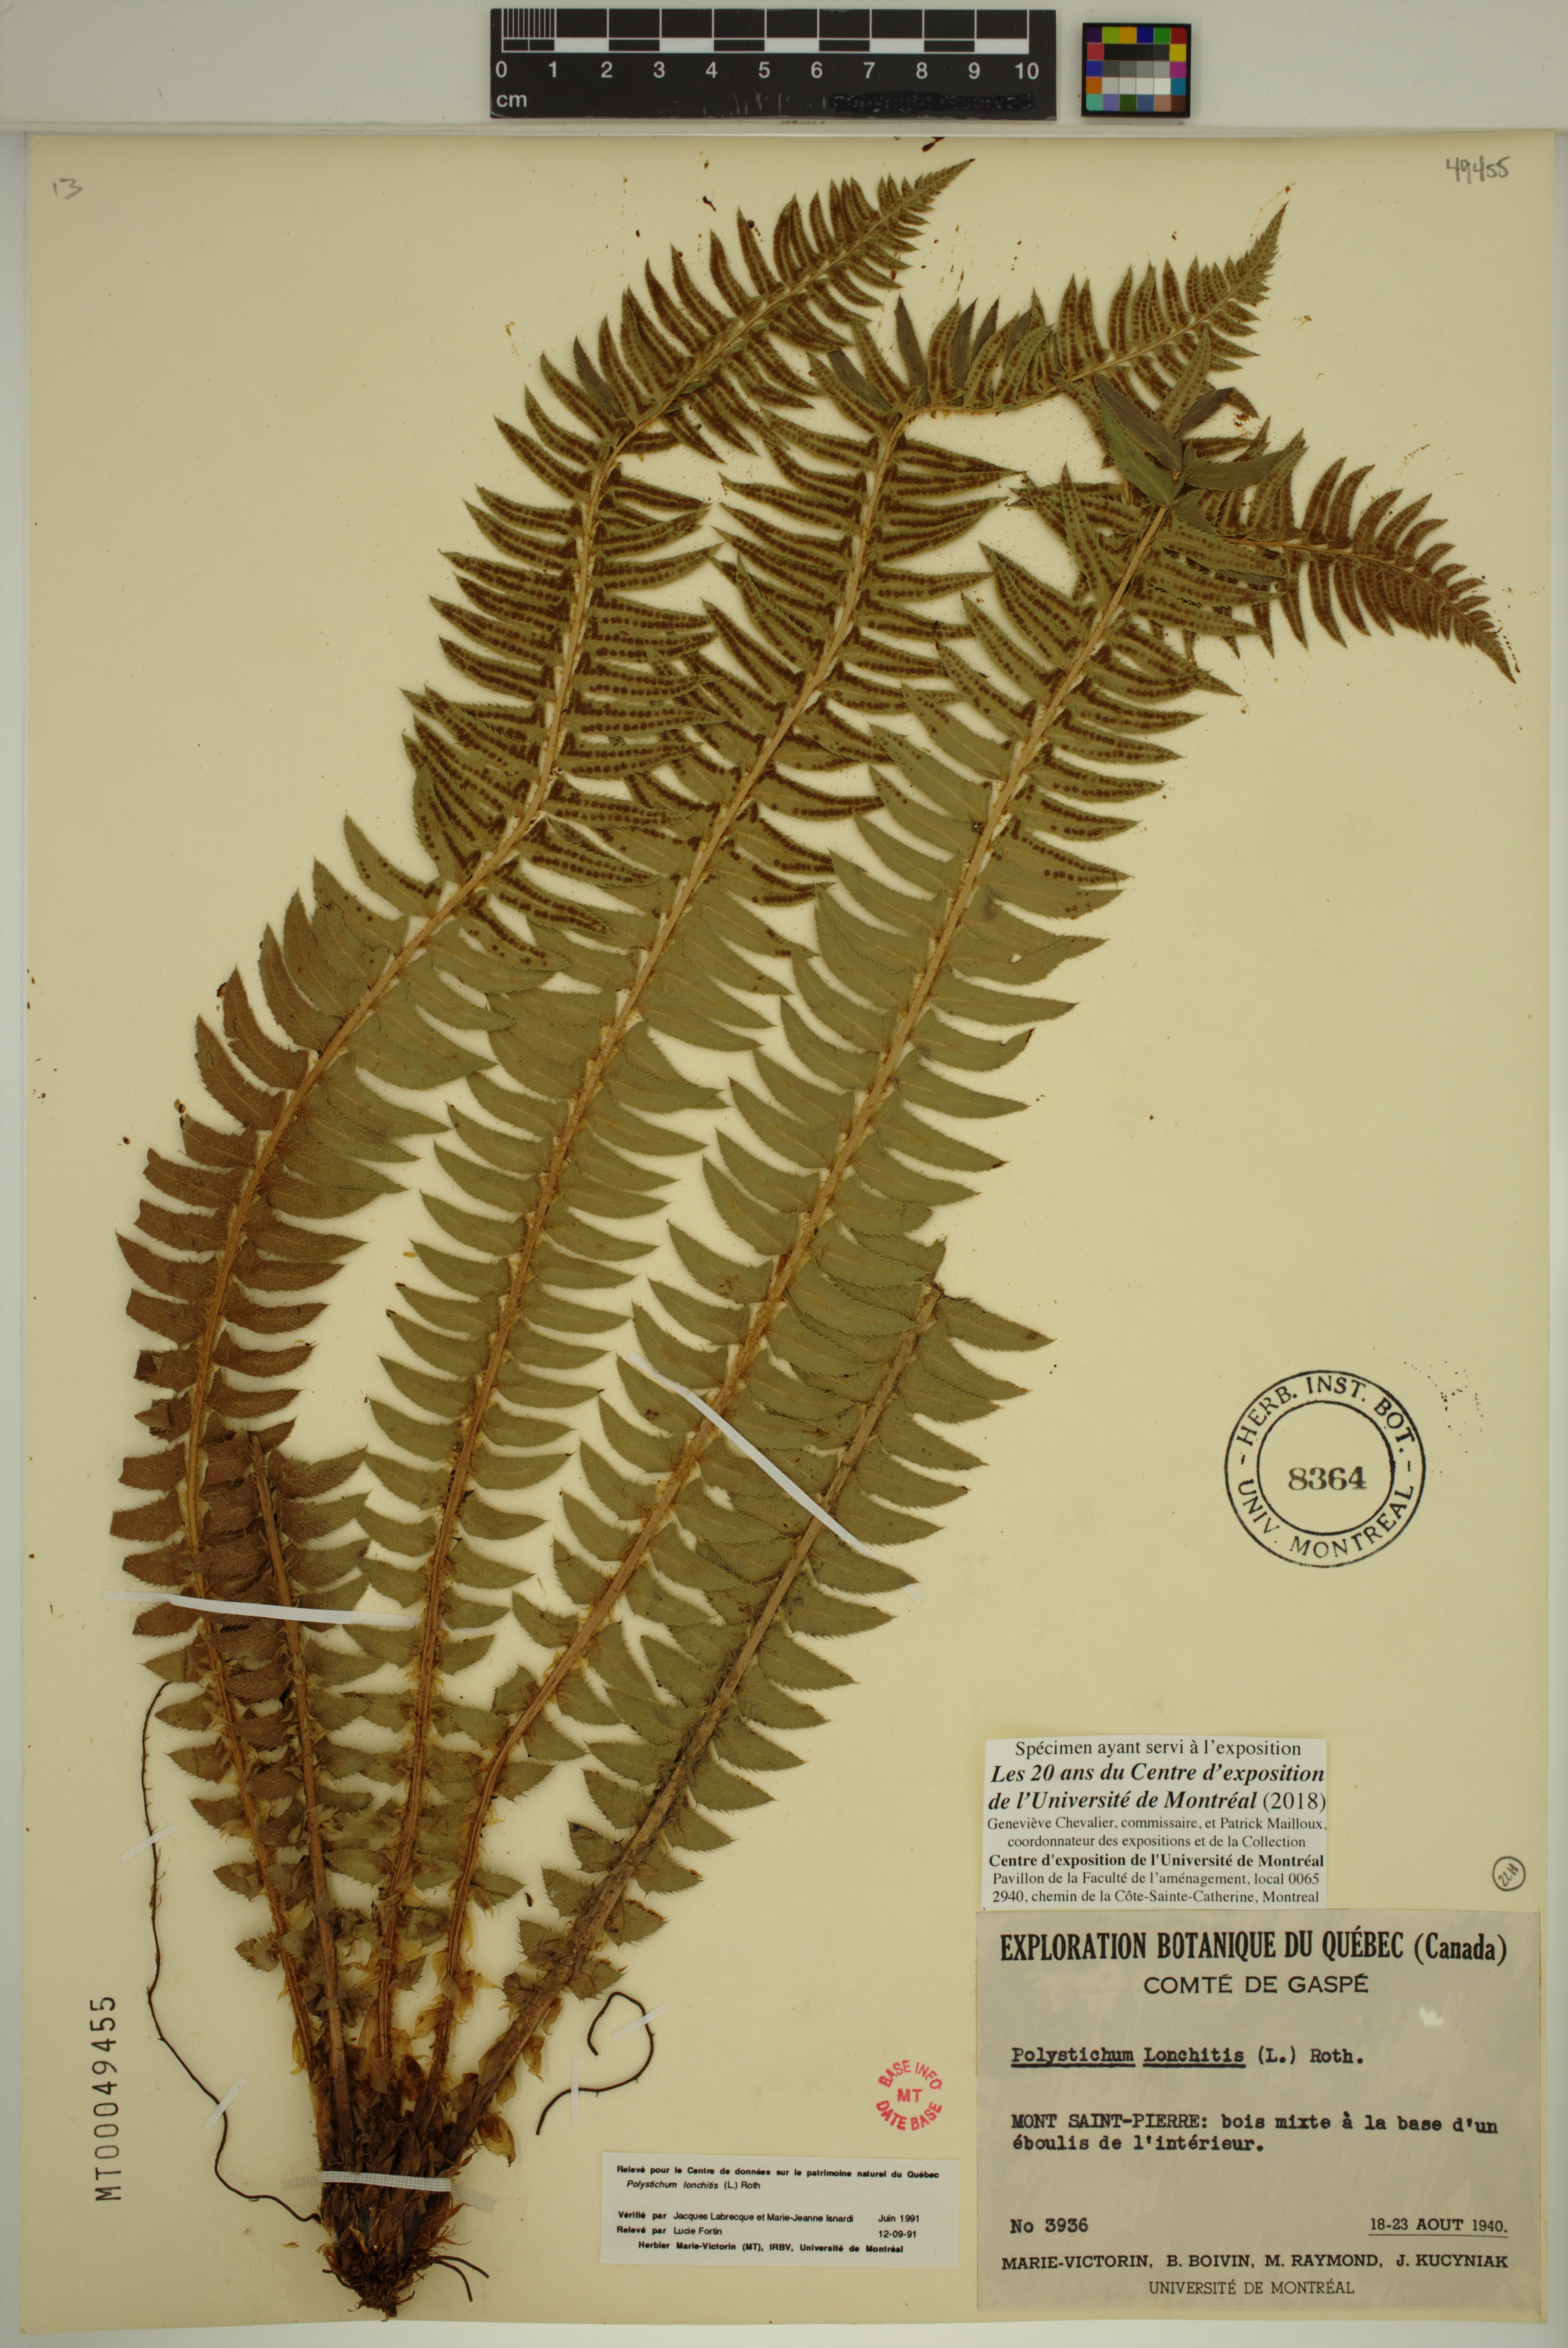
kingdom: Plantae
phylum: Tracheophyta
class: Polypodiopsida
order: Polypodiales
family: Dryopteridaceae
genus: Polystichum
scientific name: Polystichum lonchitis
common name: Holly fern
